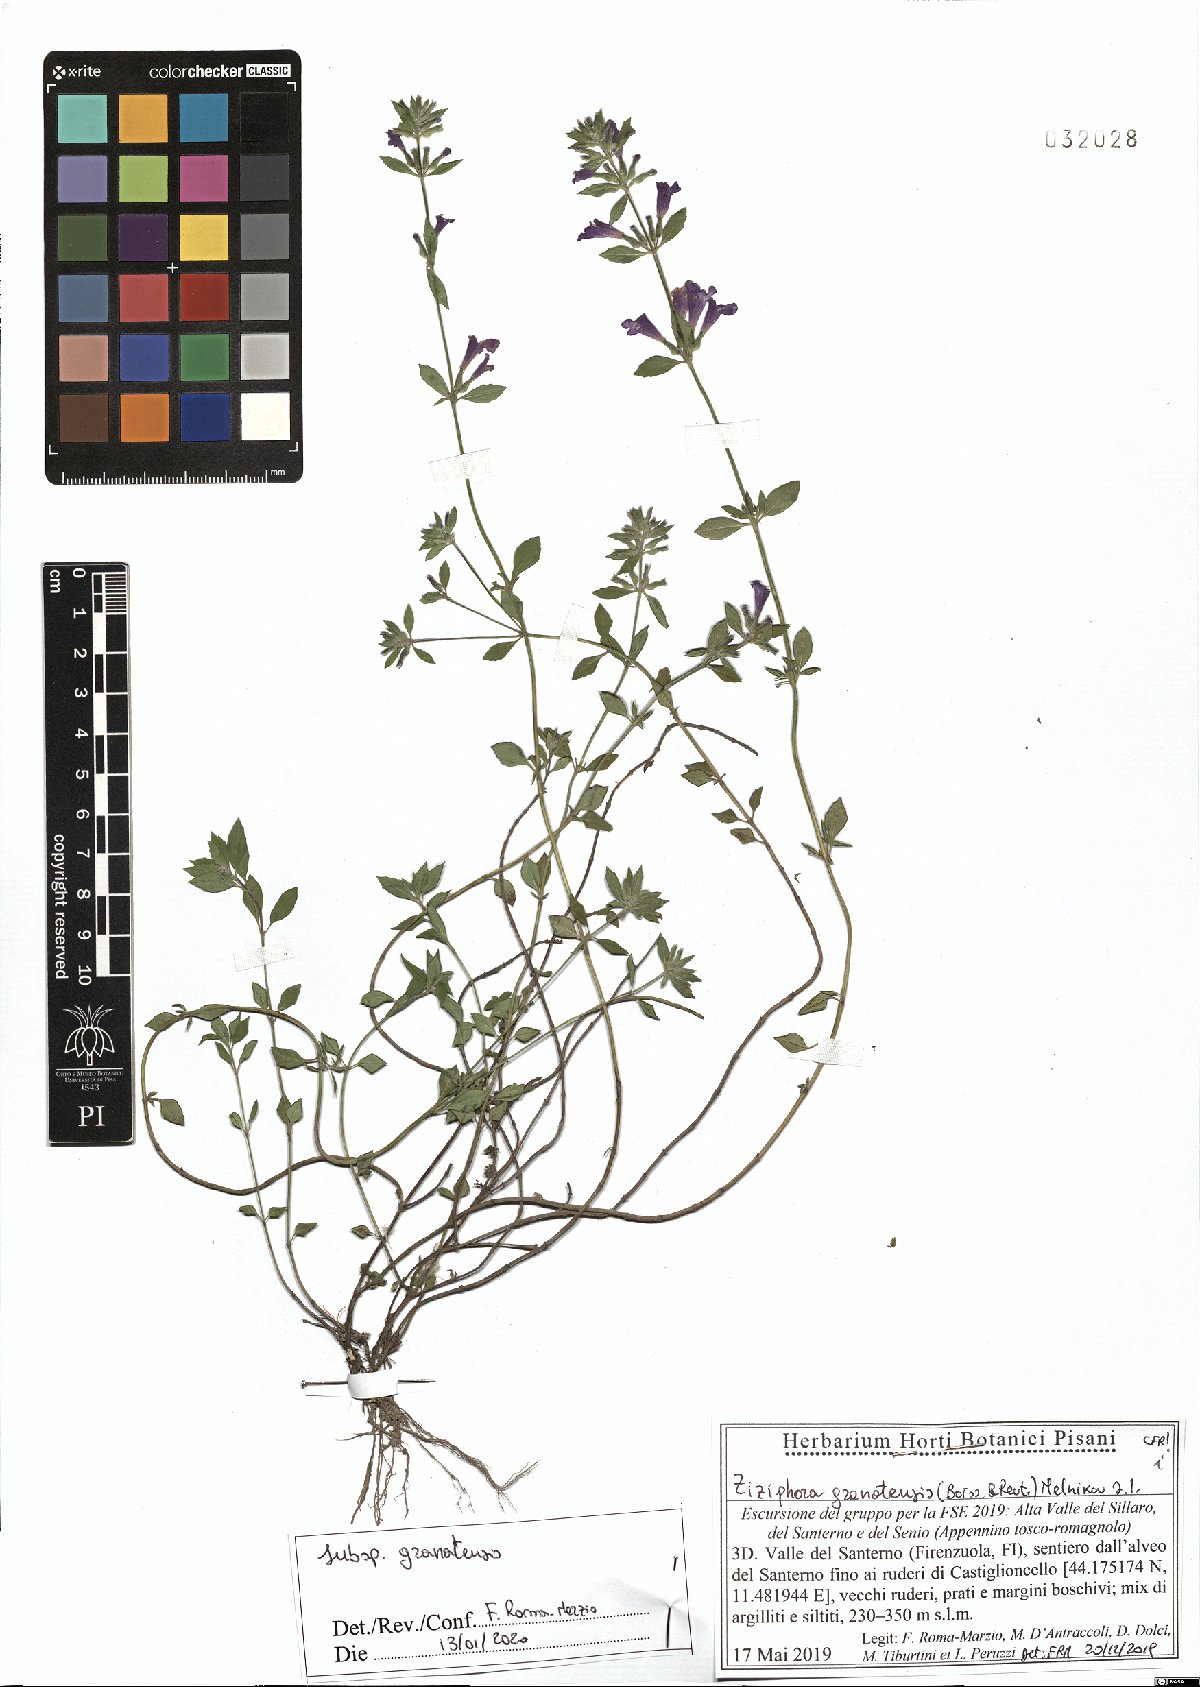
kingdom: Plantae
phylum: Tracheophyta
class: Magnoliopsida
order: Lamiales
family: Lamiaceae
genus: Clinopodium
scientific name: Clinopodium alpinum
